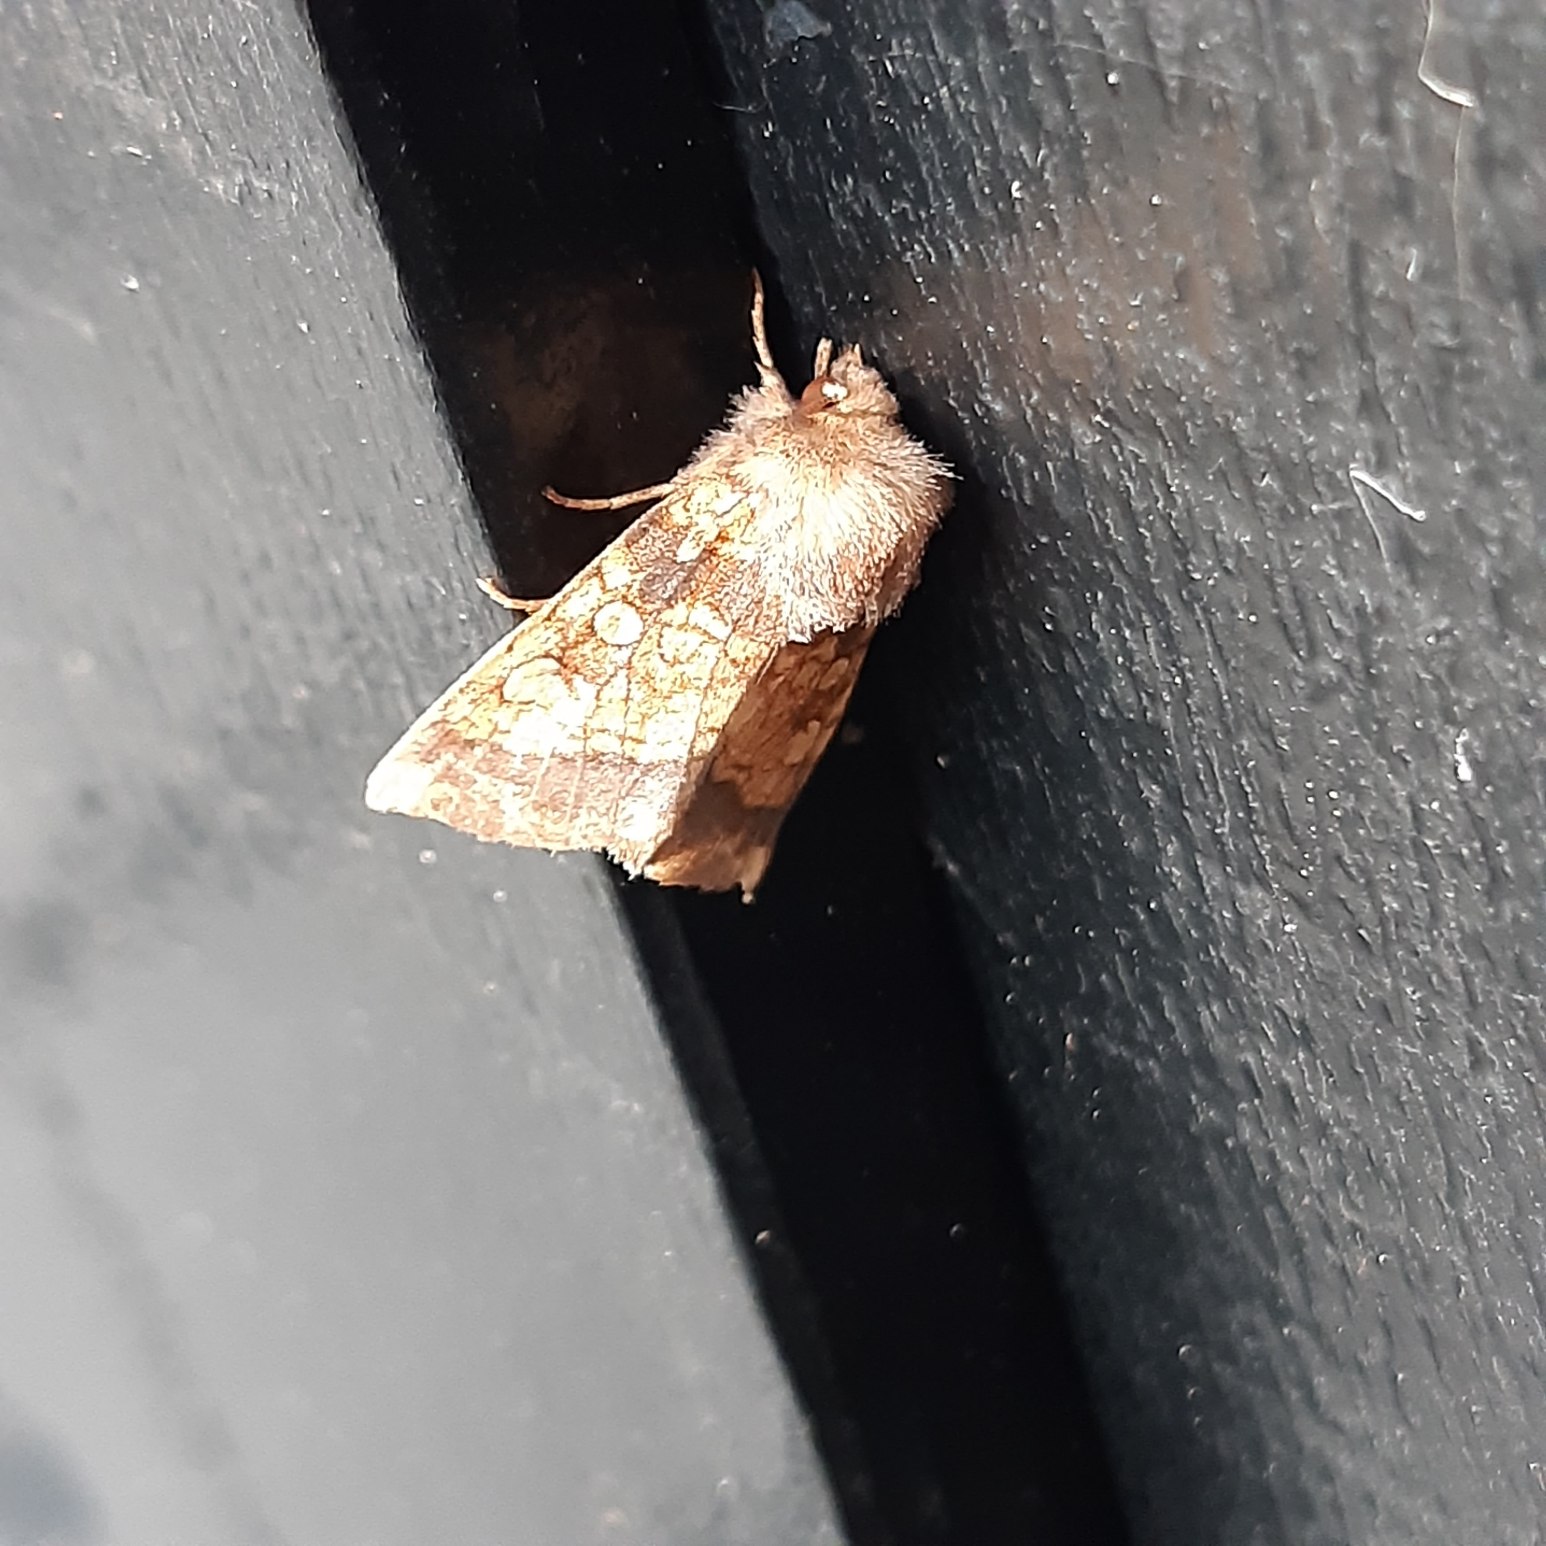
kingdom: Animalia
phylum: Arthropoda
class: Insecta
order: Lepidoptera
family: Noctuidae
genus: Gortyna
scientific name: Gortyna flavago
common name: Burreugle
